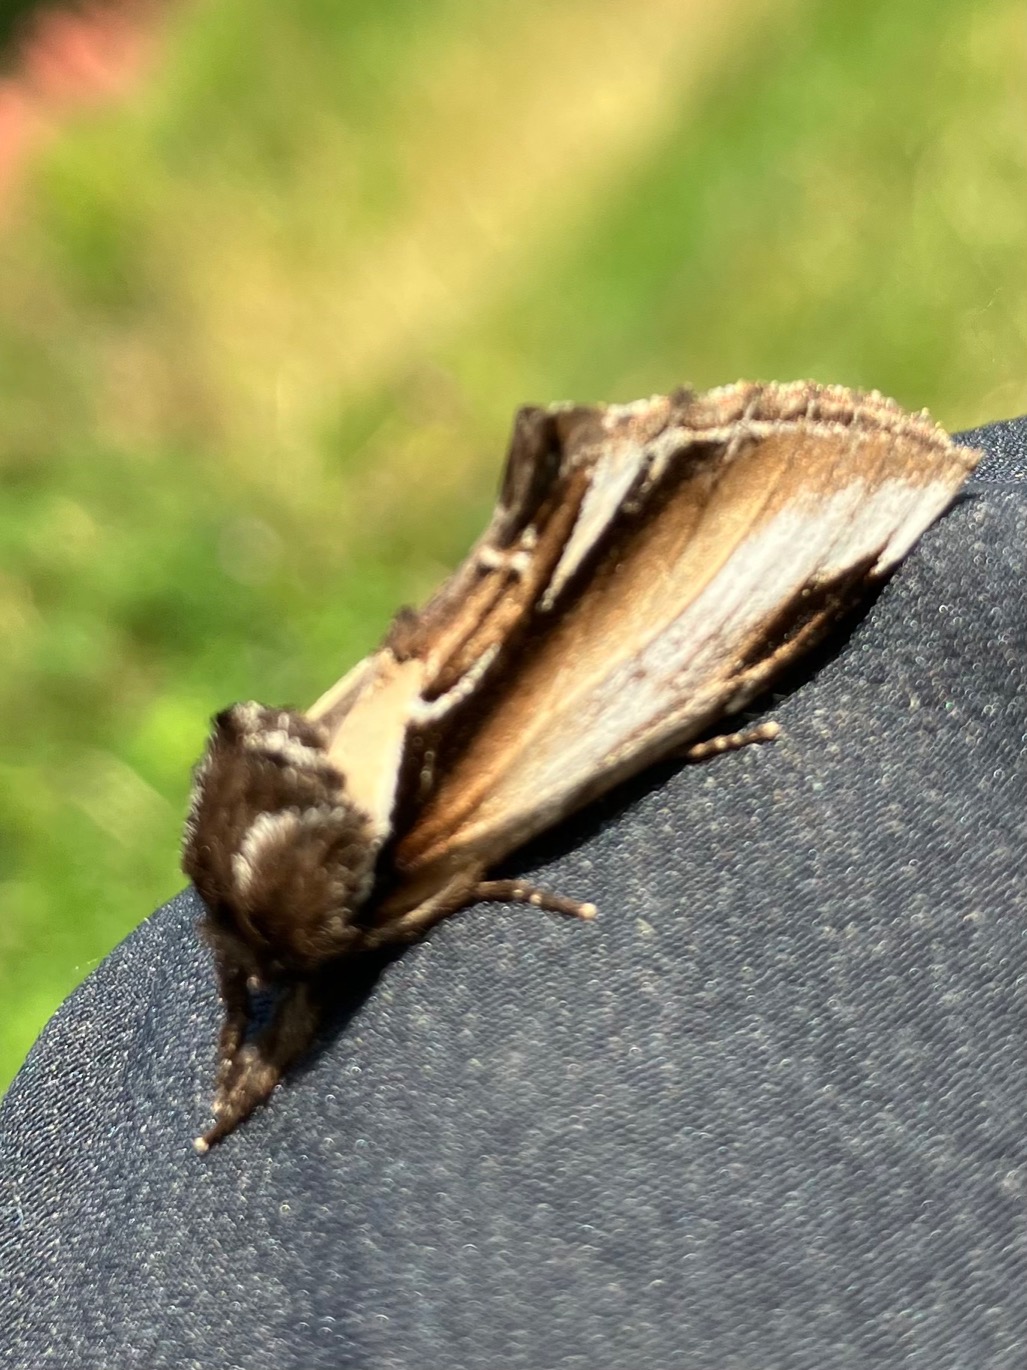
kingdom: Animalia
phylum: Arthropoda
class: Insecta
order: Lepidoptera
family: Notodontidae
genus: Pheosia
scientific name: Pheosia gnoma
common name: Birkeporcelænsspinder
